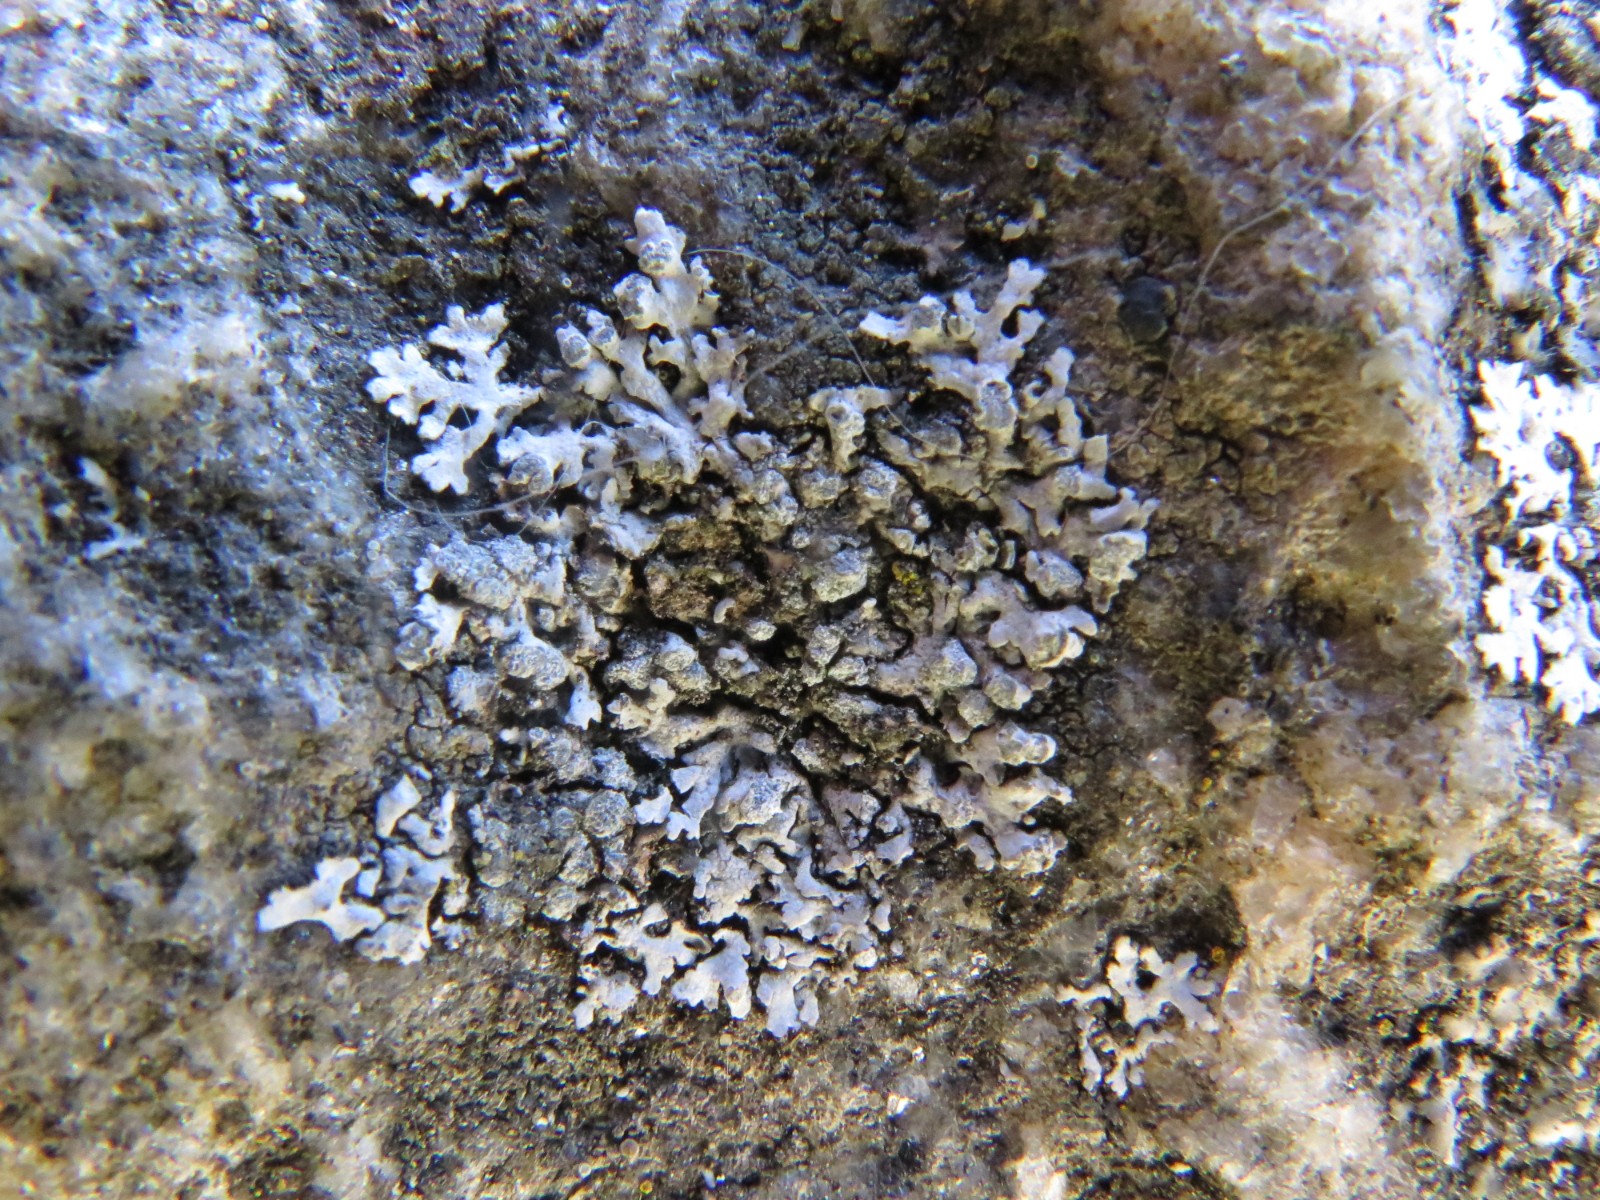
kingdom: Fungi
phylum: Ascomycota
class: Lecanoromycetes
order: Caliciales
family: Physciaceae
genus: Physcia
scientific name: Physcia dubia
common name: fuglestens-rosetlav
